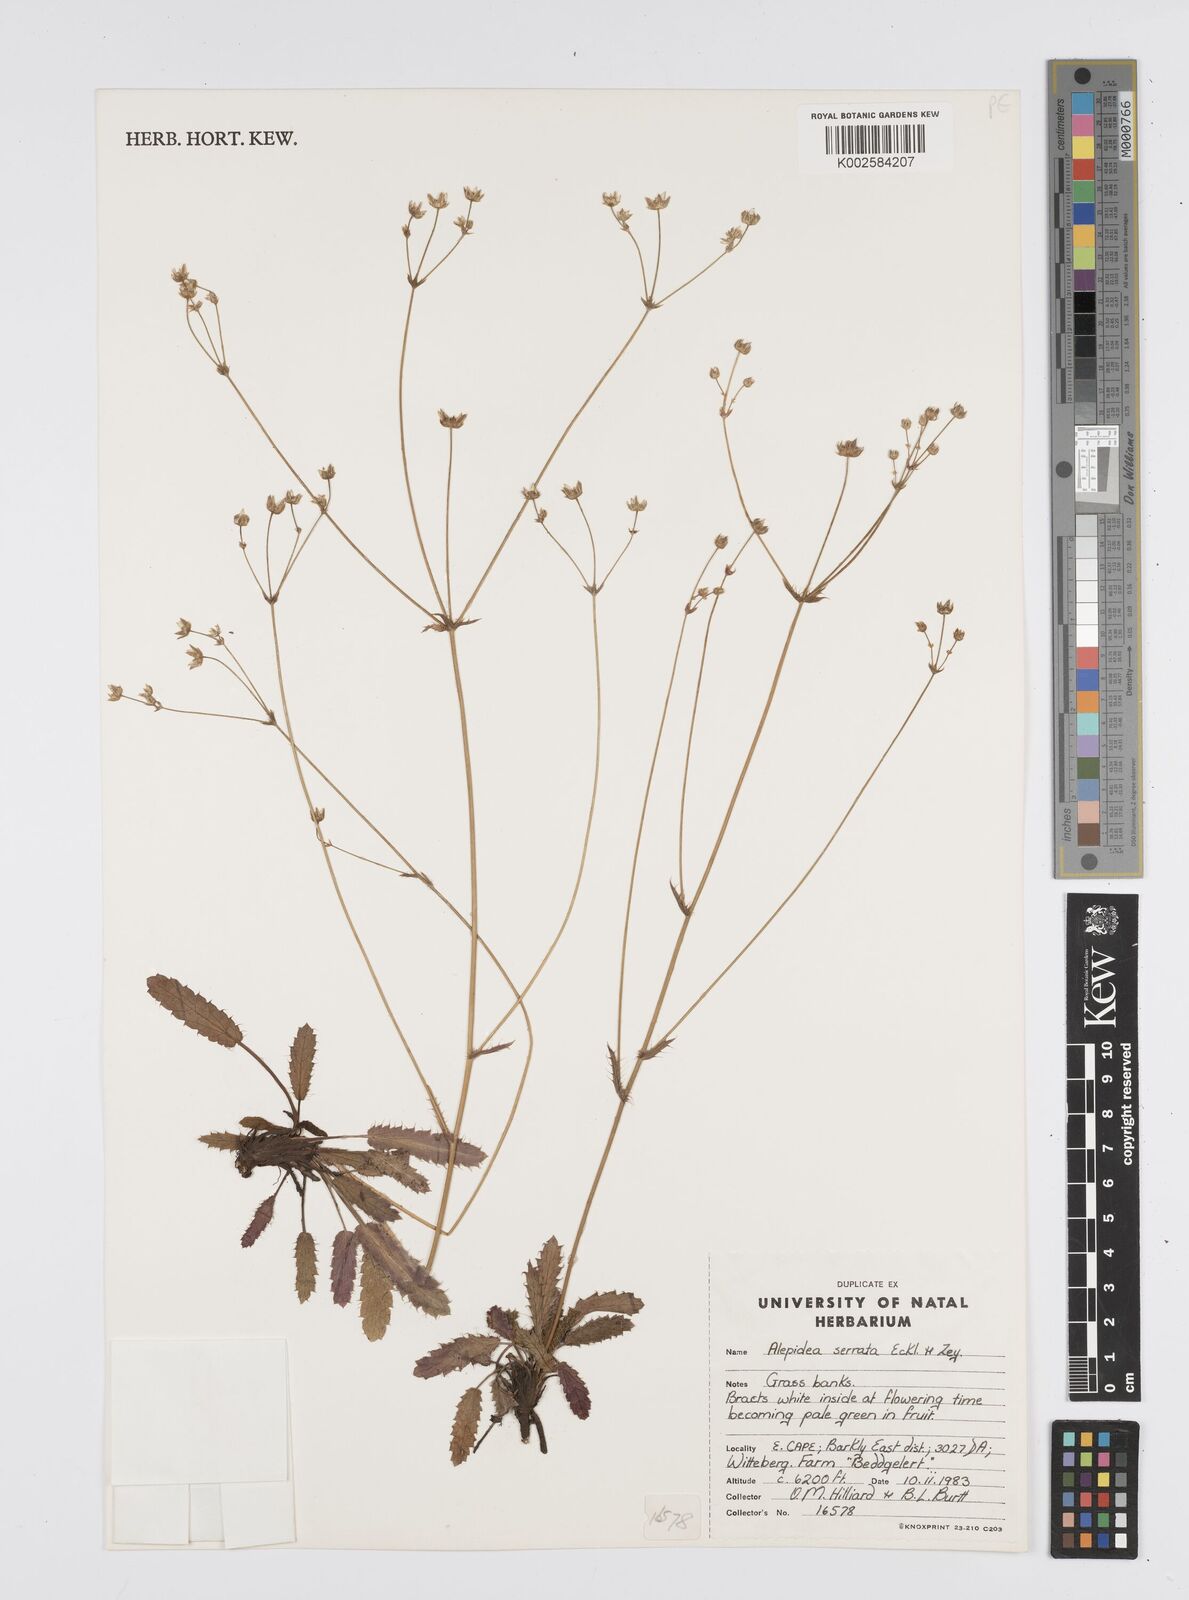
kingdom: Plantae
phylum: Tracheophyta
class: Magnoliopsida
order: Apiales
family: Apiaceae
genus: Alepidea
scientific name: Alepidea serrata
